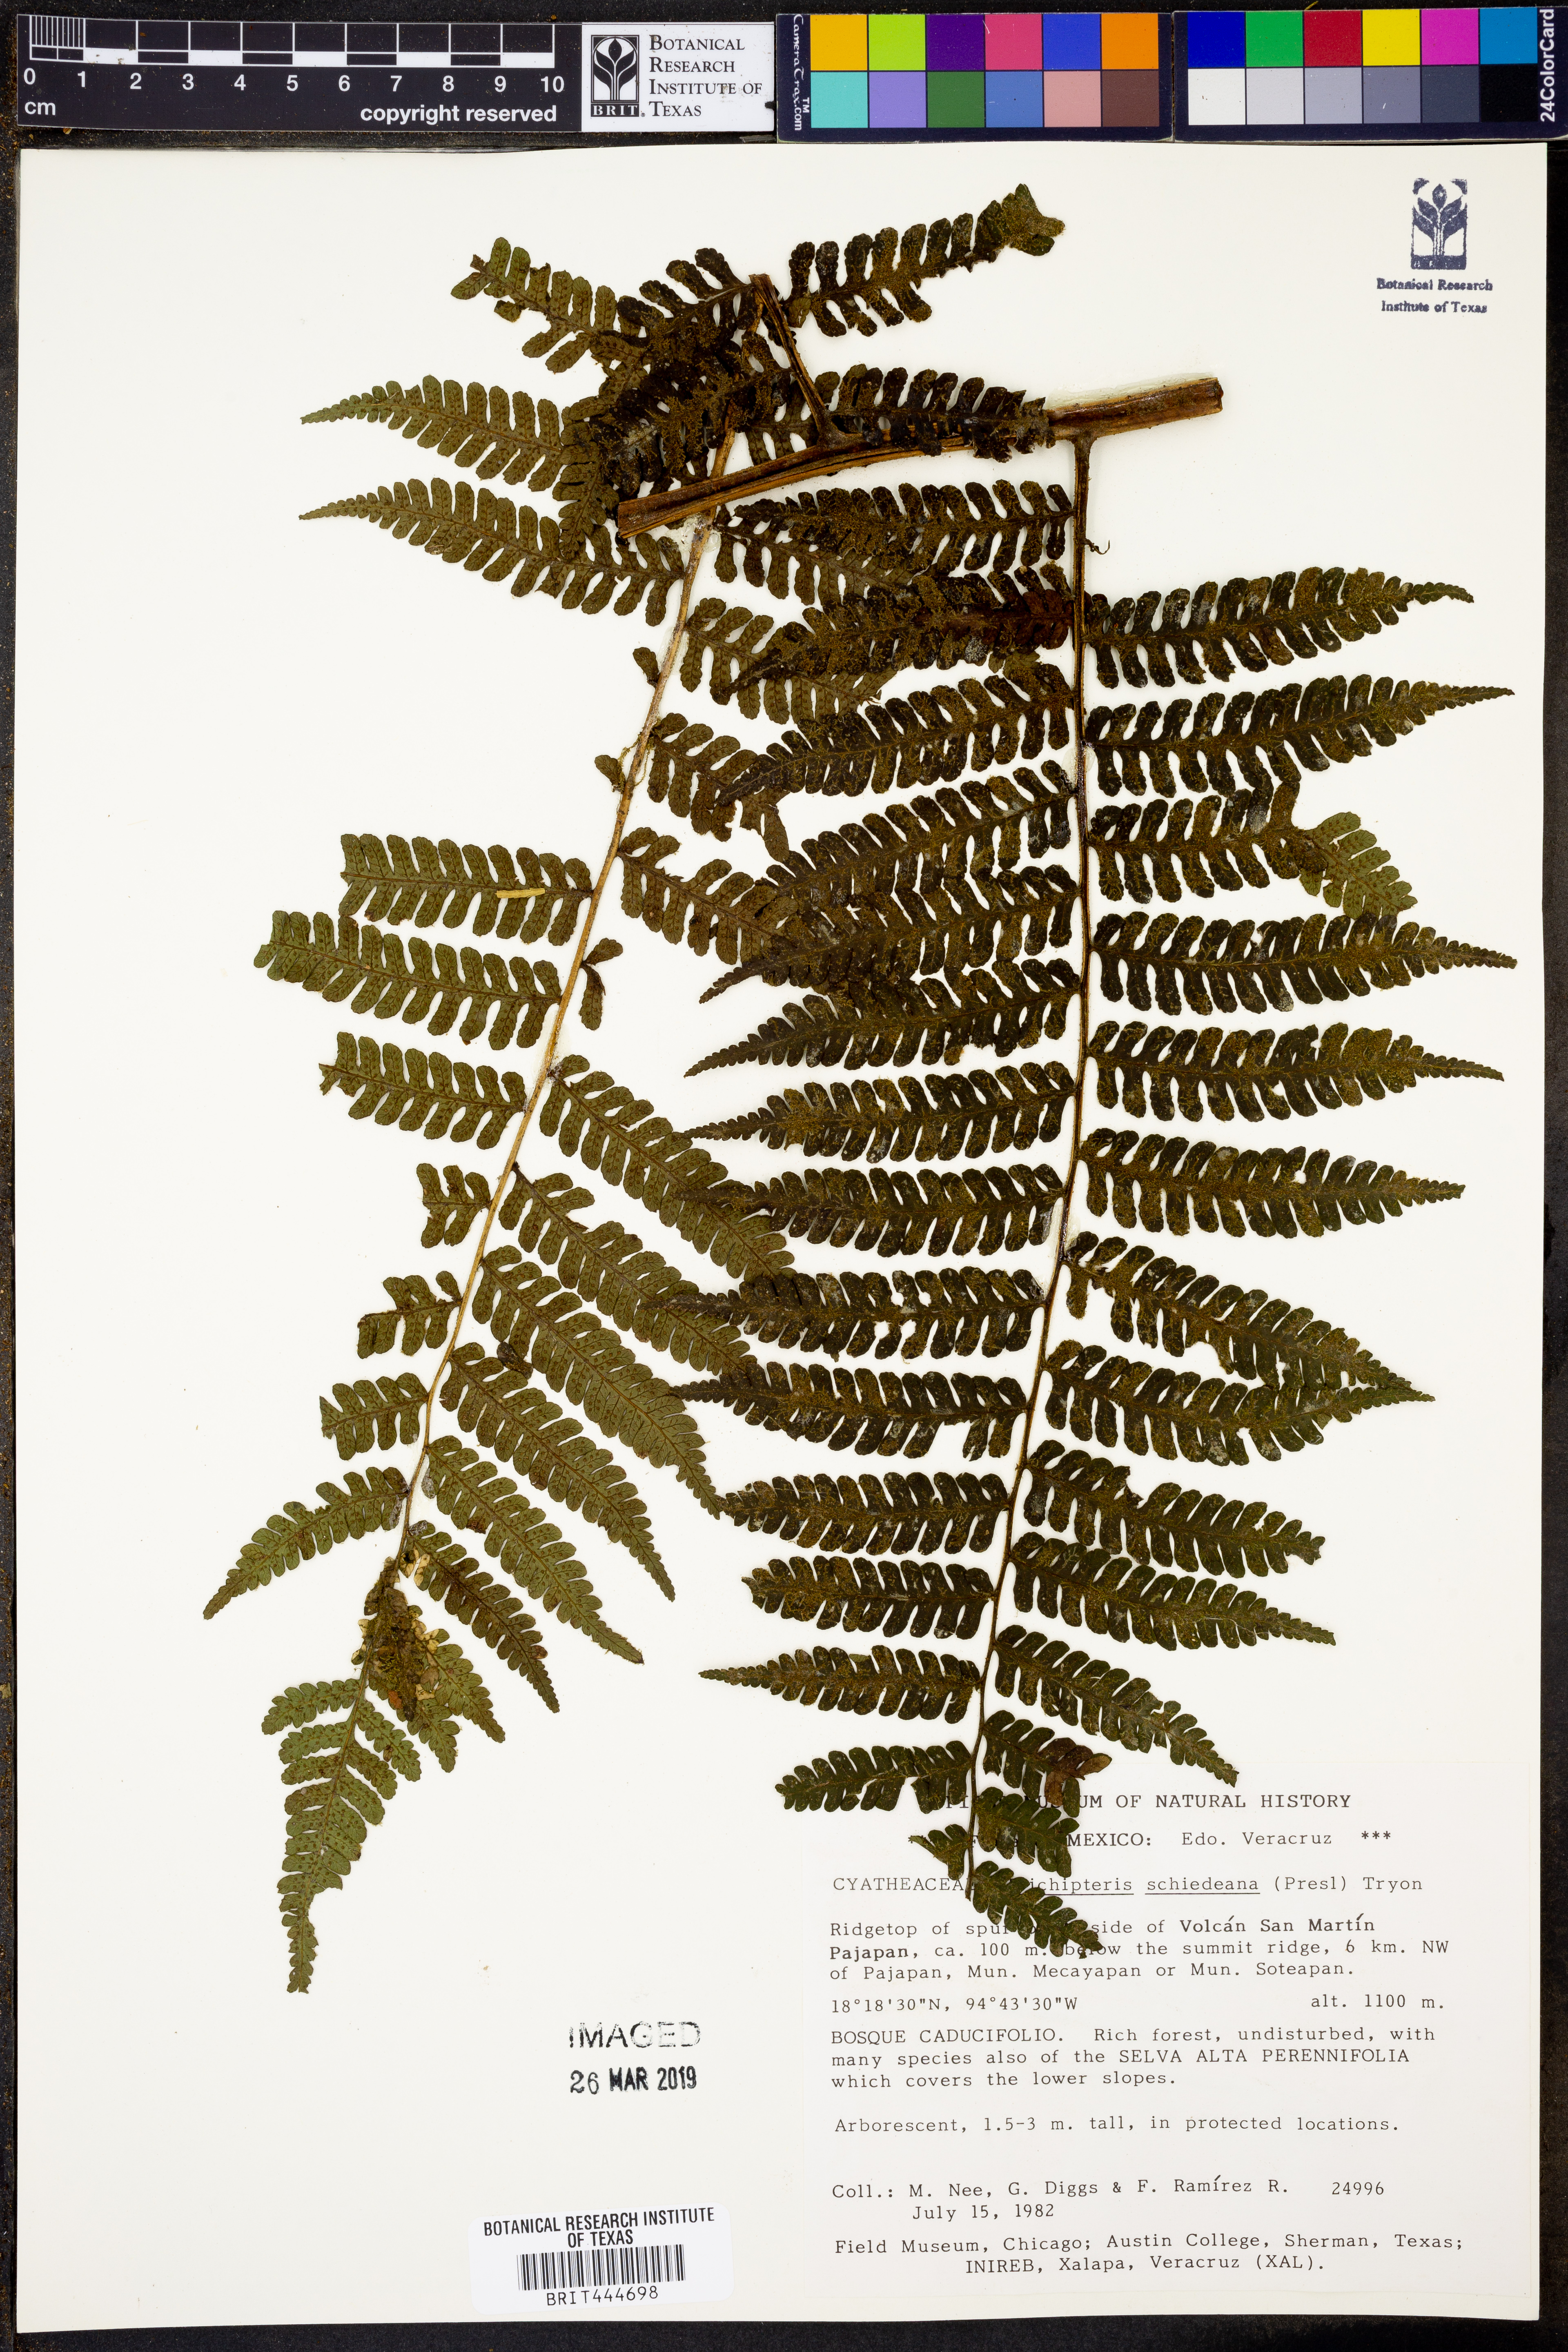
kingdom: Plantae
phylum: Tracheophyta
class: Polypodiopsida
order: Cyatheales
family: Cyatheaceae
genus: Cyathea
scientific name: Cyathea schiedeana
